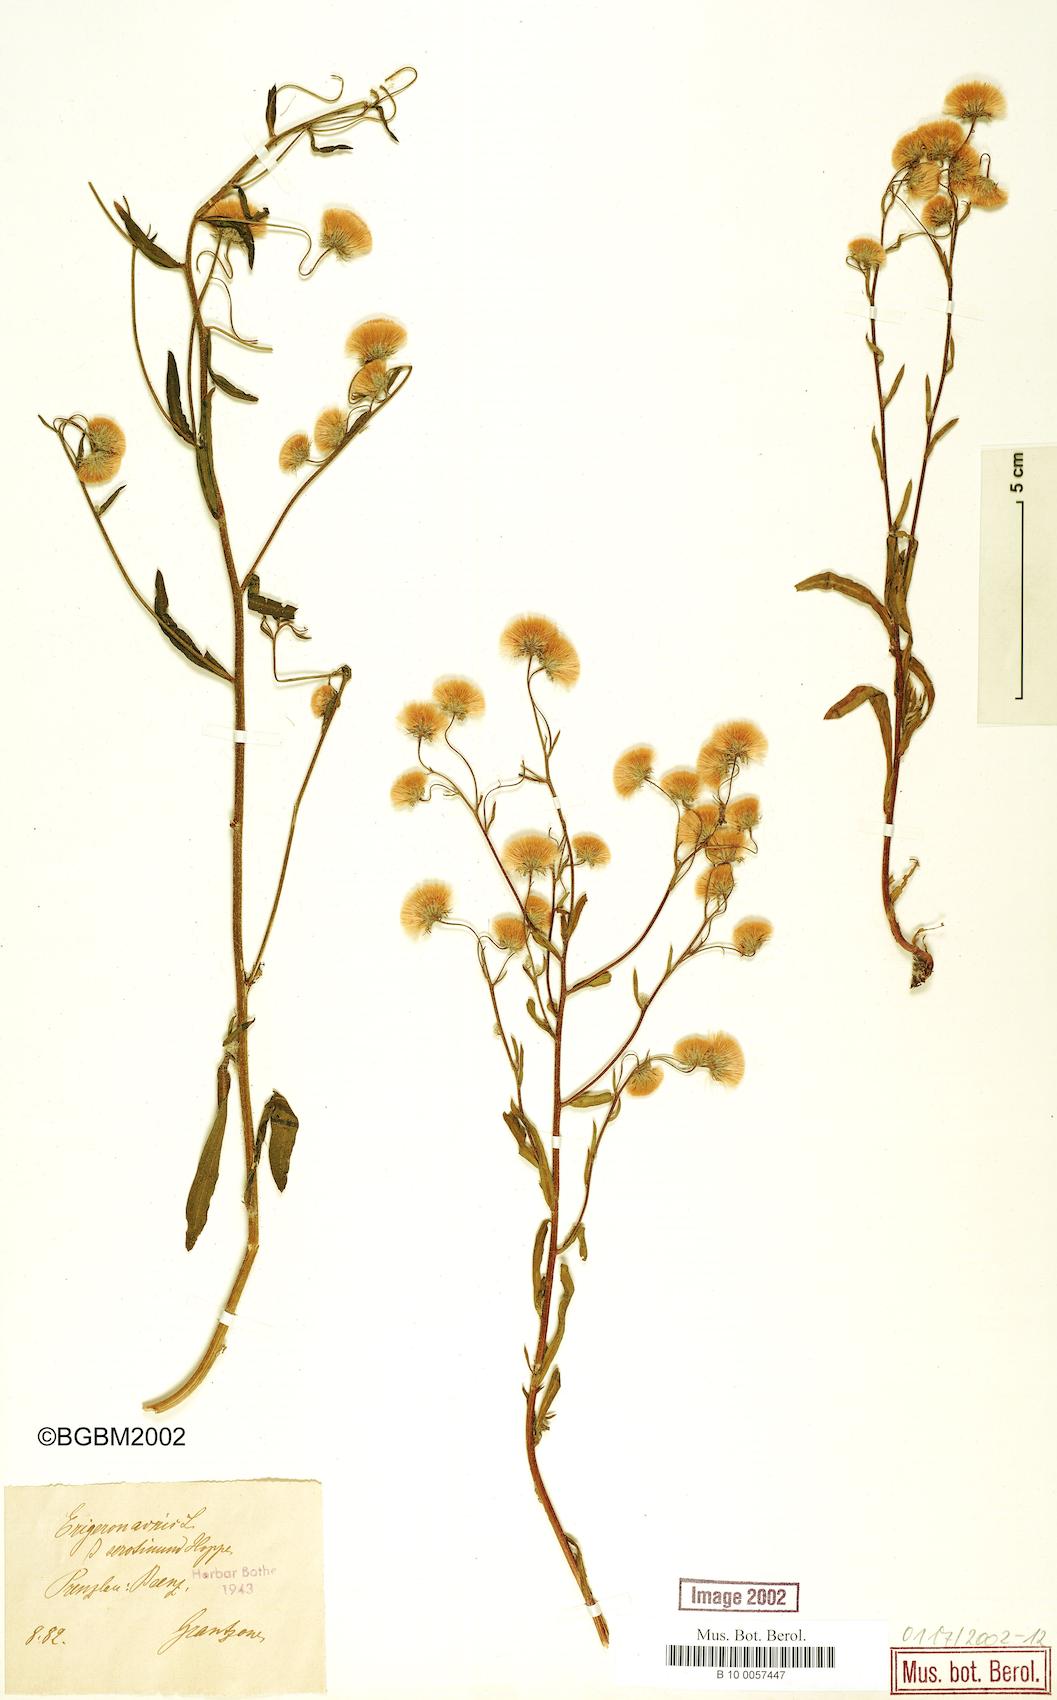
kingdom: Plantae
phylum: Tracheophyta
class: Magnoliopsida
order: Asterales
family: Asteraceae
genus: Erigeron
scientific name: Erigeron acris
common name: Blue fleabane
